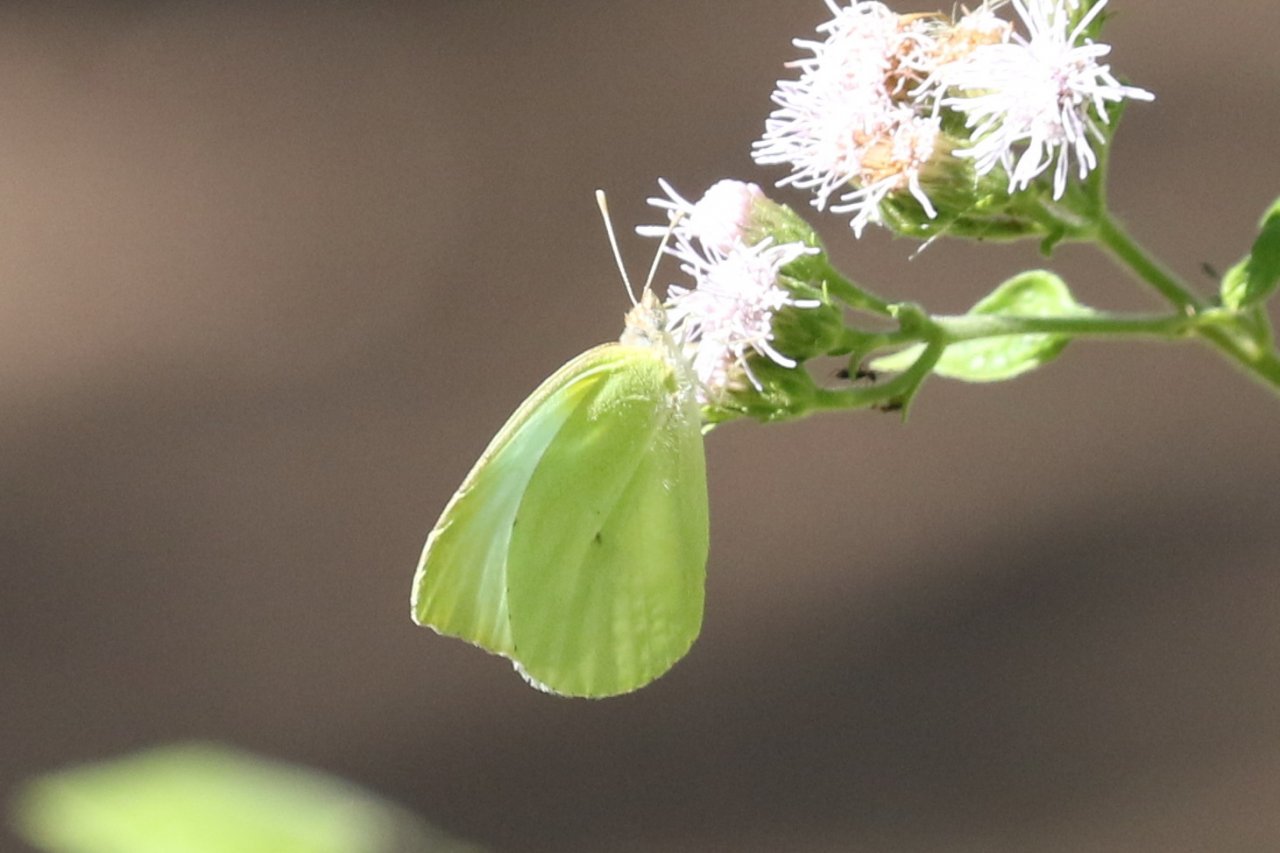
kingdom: Animalia
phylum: Arthropoda
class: Insecta
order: Lepidoptera
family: Pieridae
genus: Kricogonia
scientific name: Kricogonia lyside
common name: Lyside Sulphur
